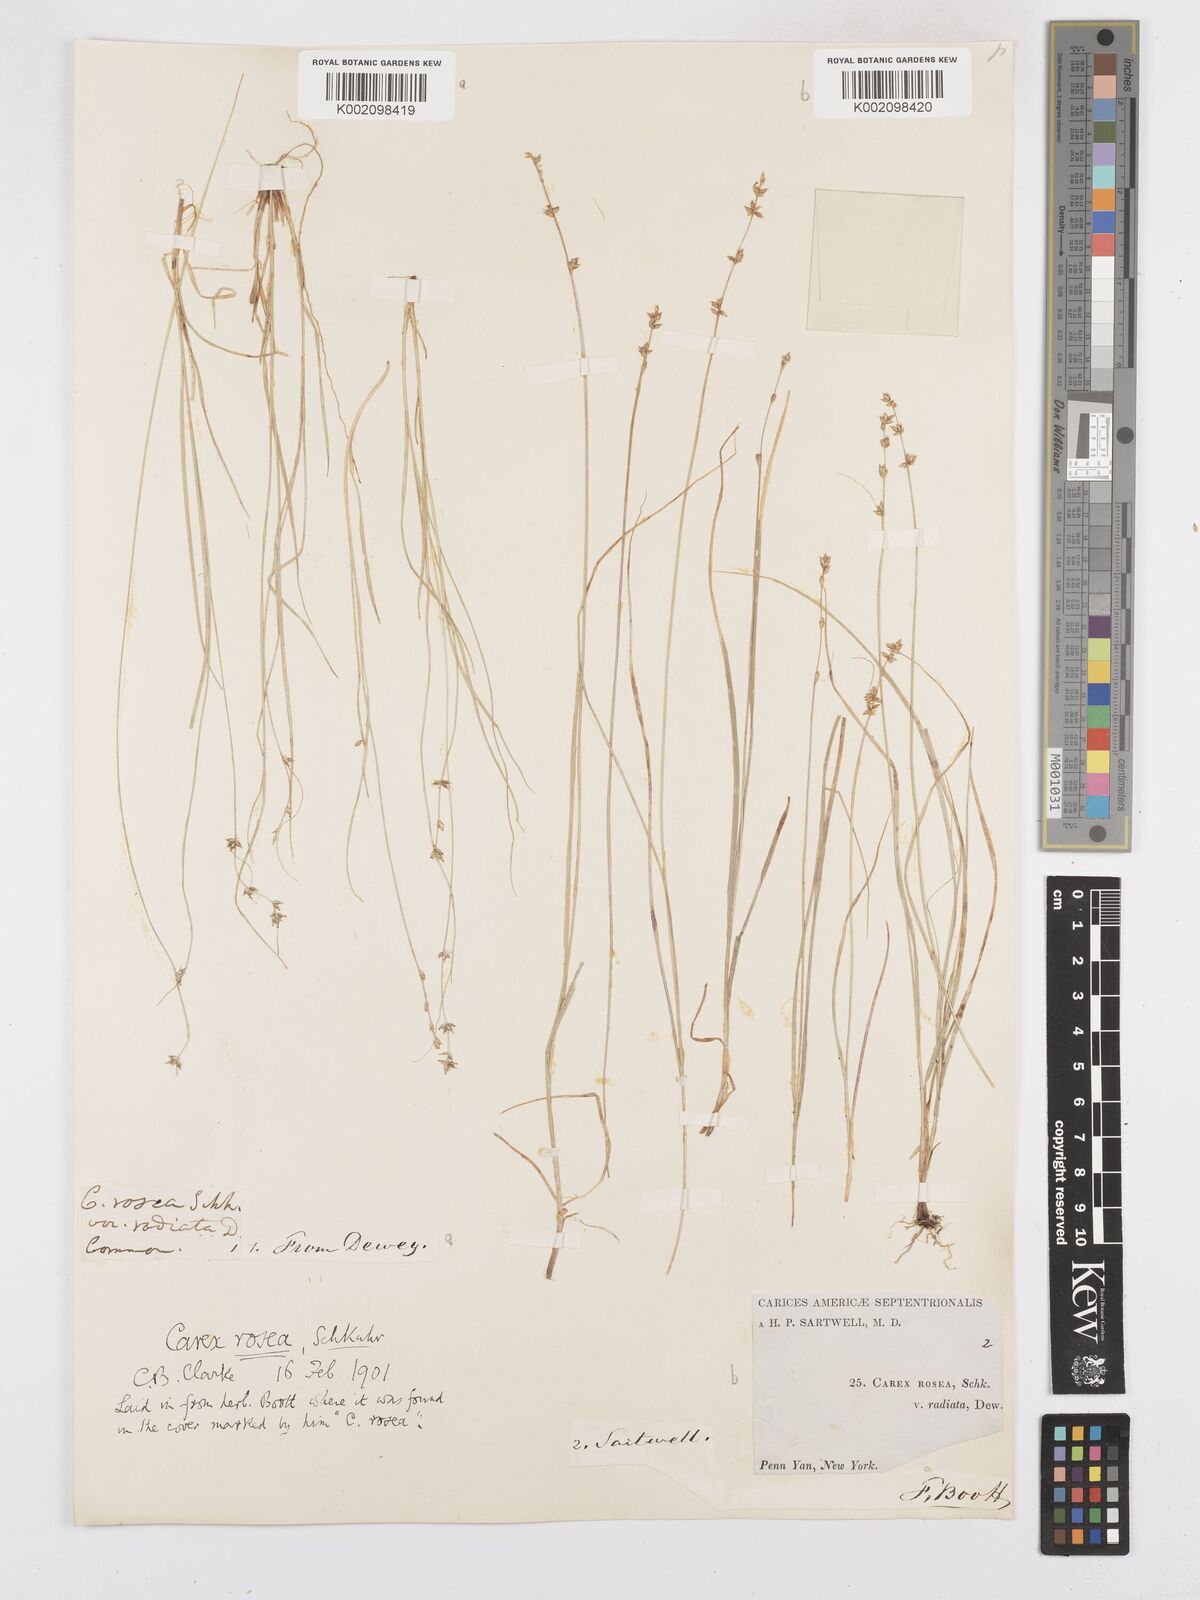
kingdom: Plantae
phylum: Tracheophyta
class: Liliopsida
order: Poales
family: Cyperaceae
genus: Carex
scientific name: Carex
